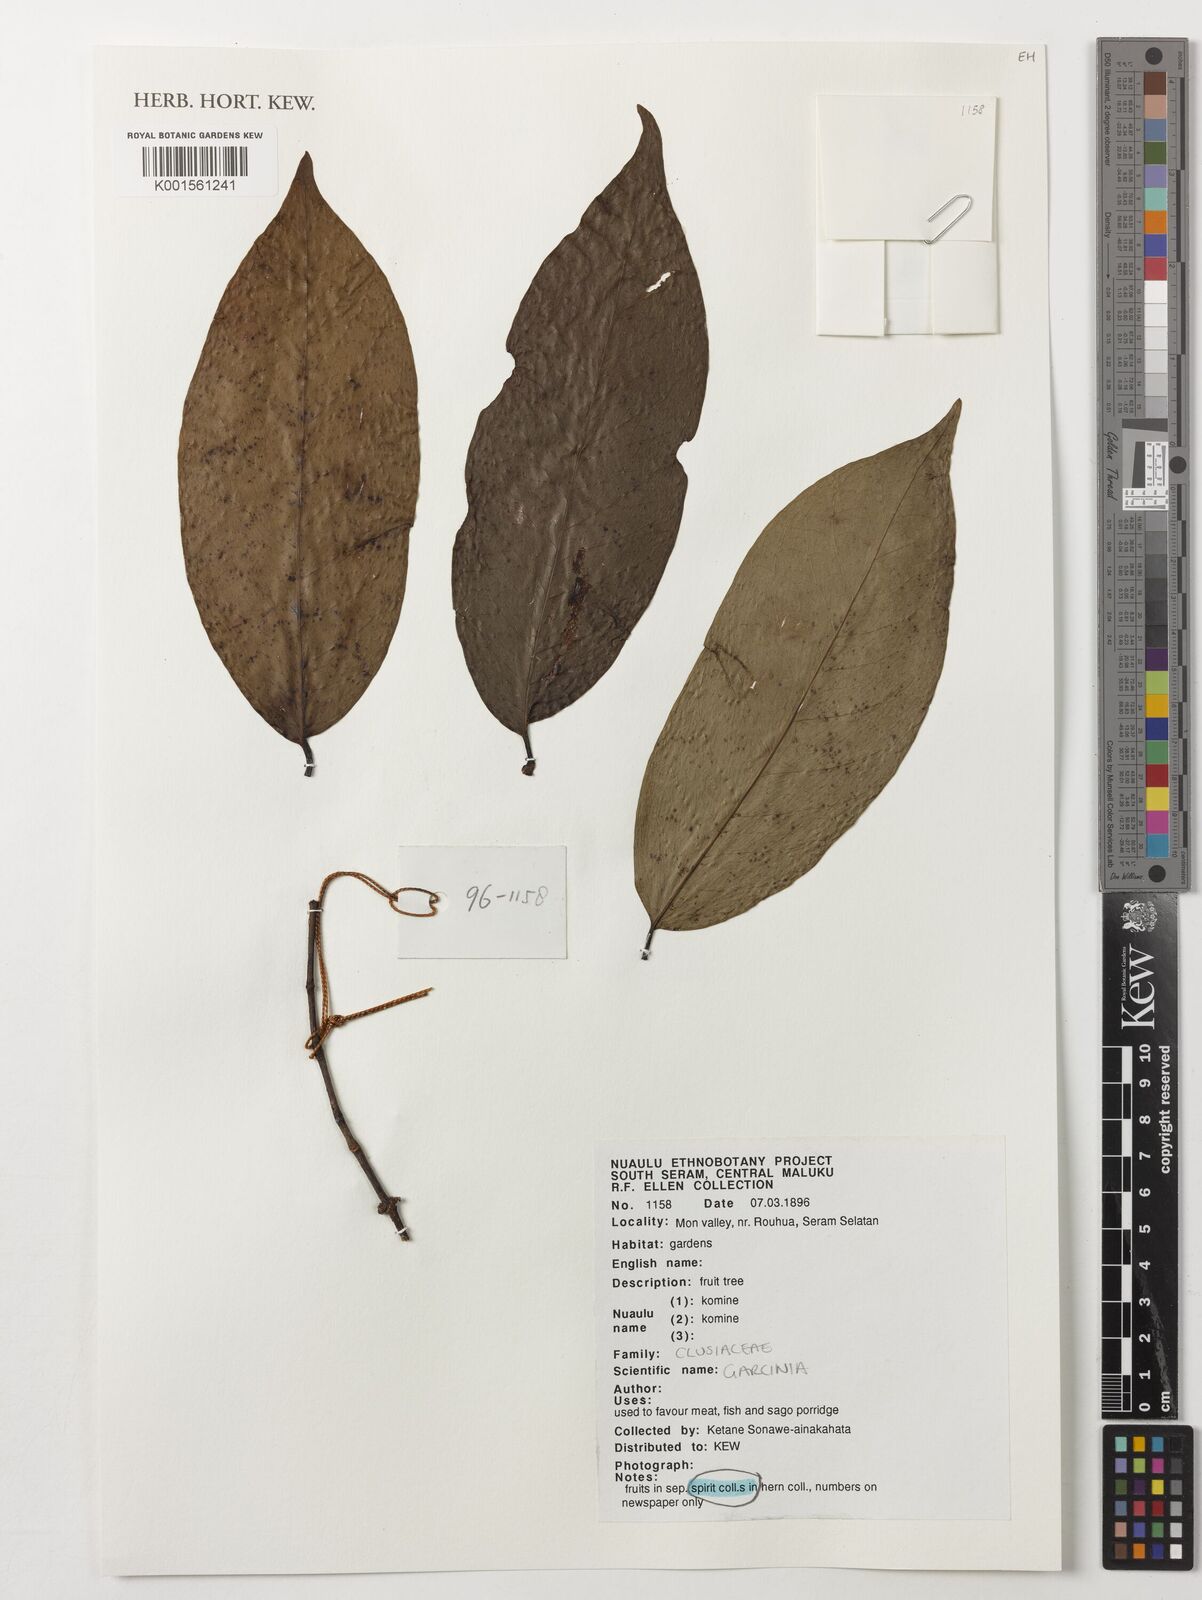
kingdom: Plantae
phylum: Tracheophyta
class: Magnoliopsida
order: Malpighiales
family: Clusiaceae
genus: Garcinia
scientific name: Garcinia
